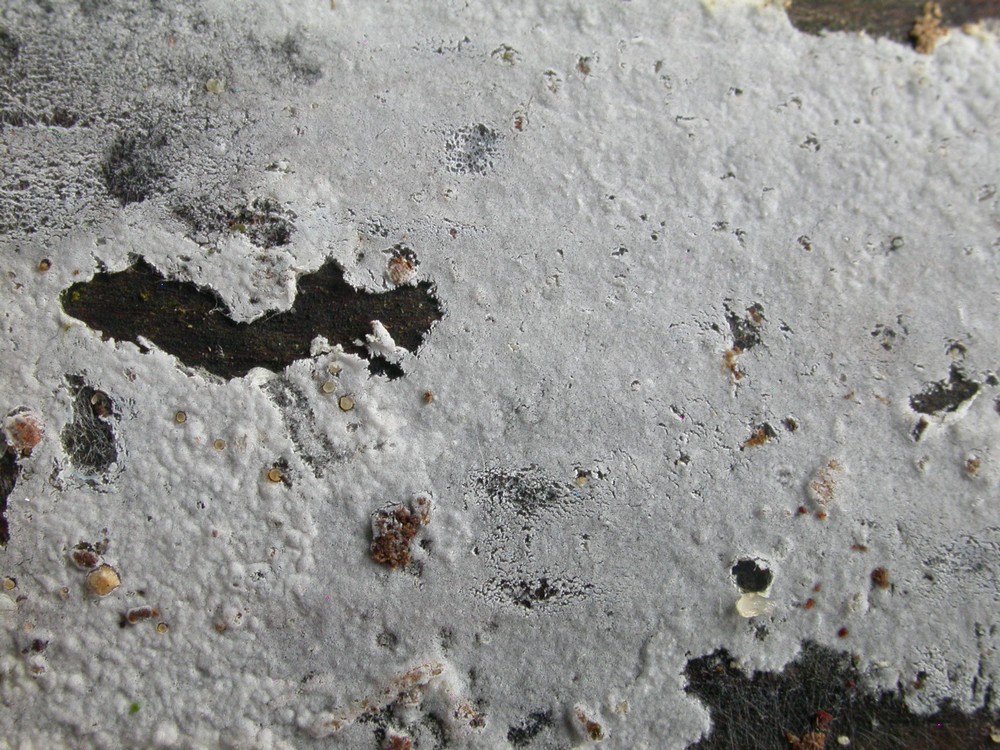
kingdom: Fungi
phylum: Basidiomycota
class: Agaricomycetes
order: Atheliales
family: Atheliaceae
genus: Athelia
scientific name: Athelia epiphylla
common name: almindelig barkhinde
